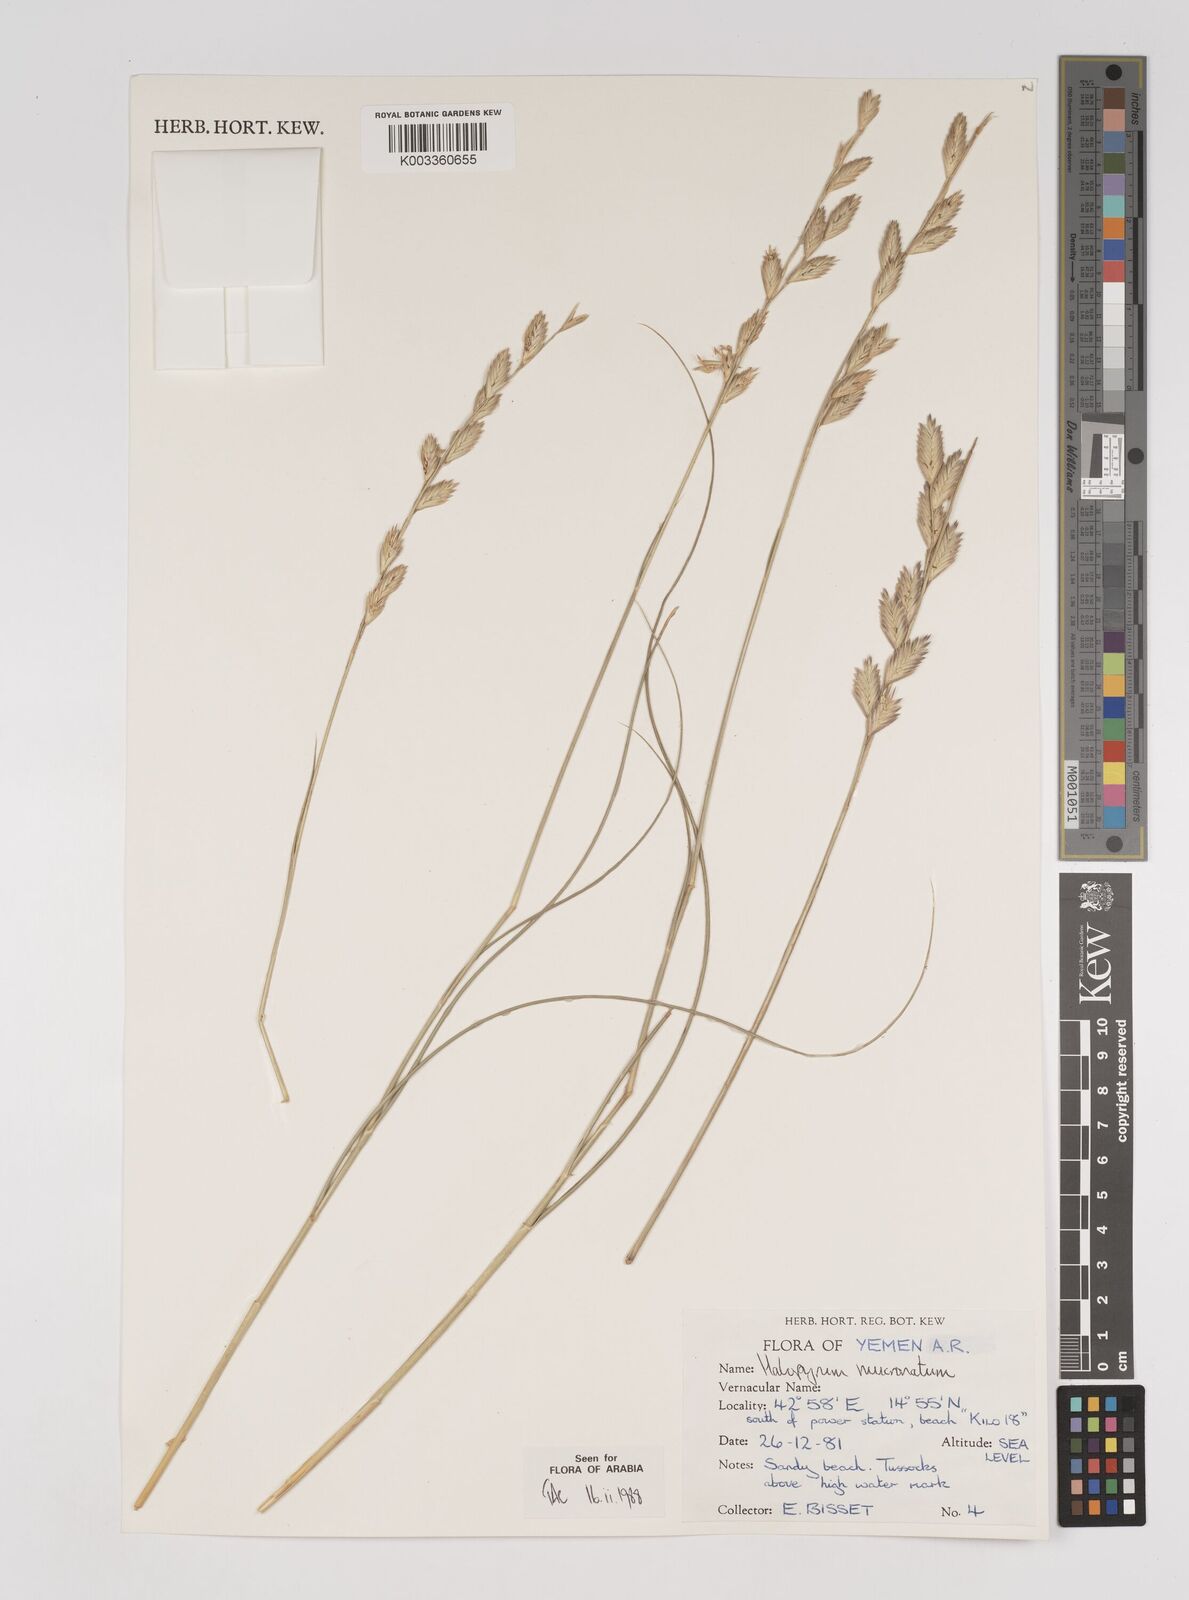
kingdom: Plantae
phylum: Tracheophyta
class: Liliopsida
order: Poales
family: Poaceae
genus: Halopyrum
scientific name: Halopyrum mucronatum
